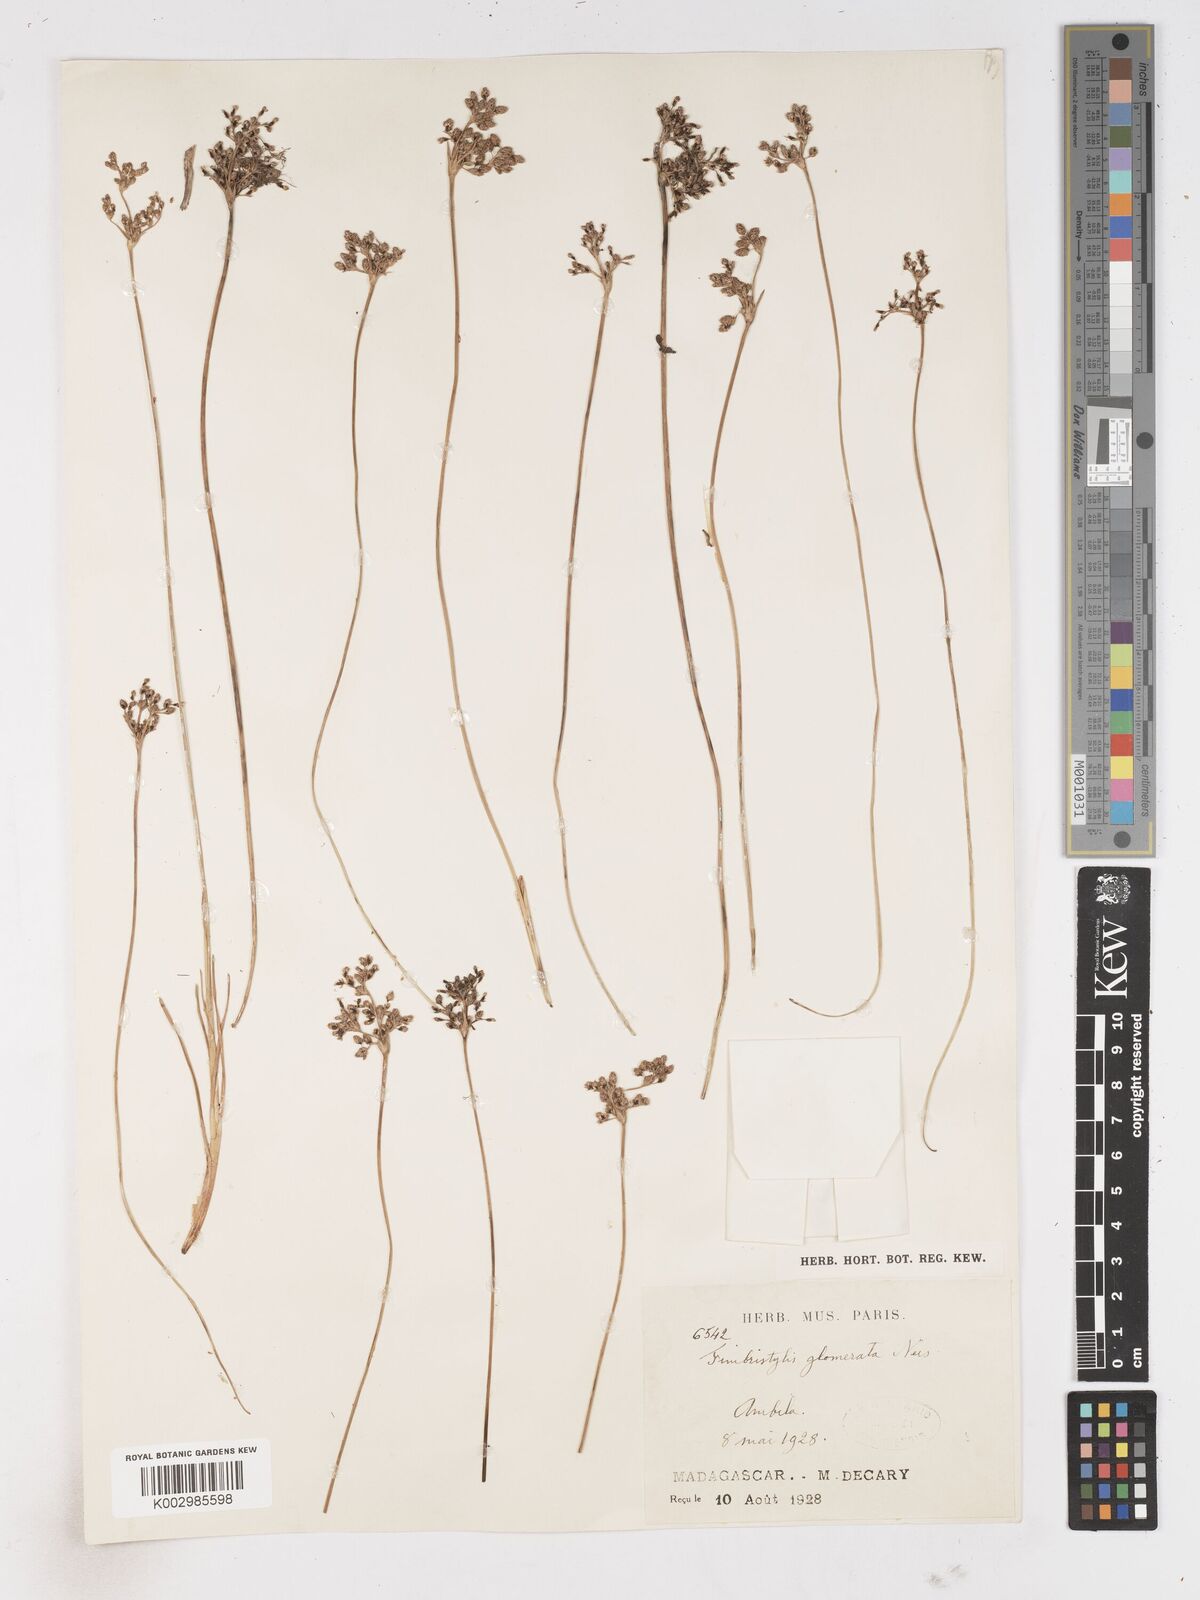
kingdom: Plantae
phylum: Tracheophyta
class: Liliopsida
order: Poales
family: Cyperaceae
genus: Fimbristylis
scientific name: Fimbristylis cymosa
